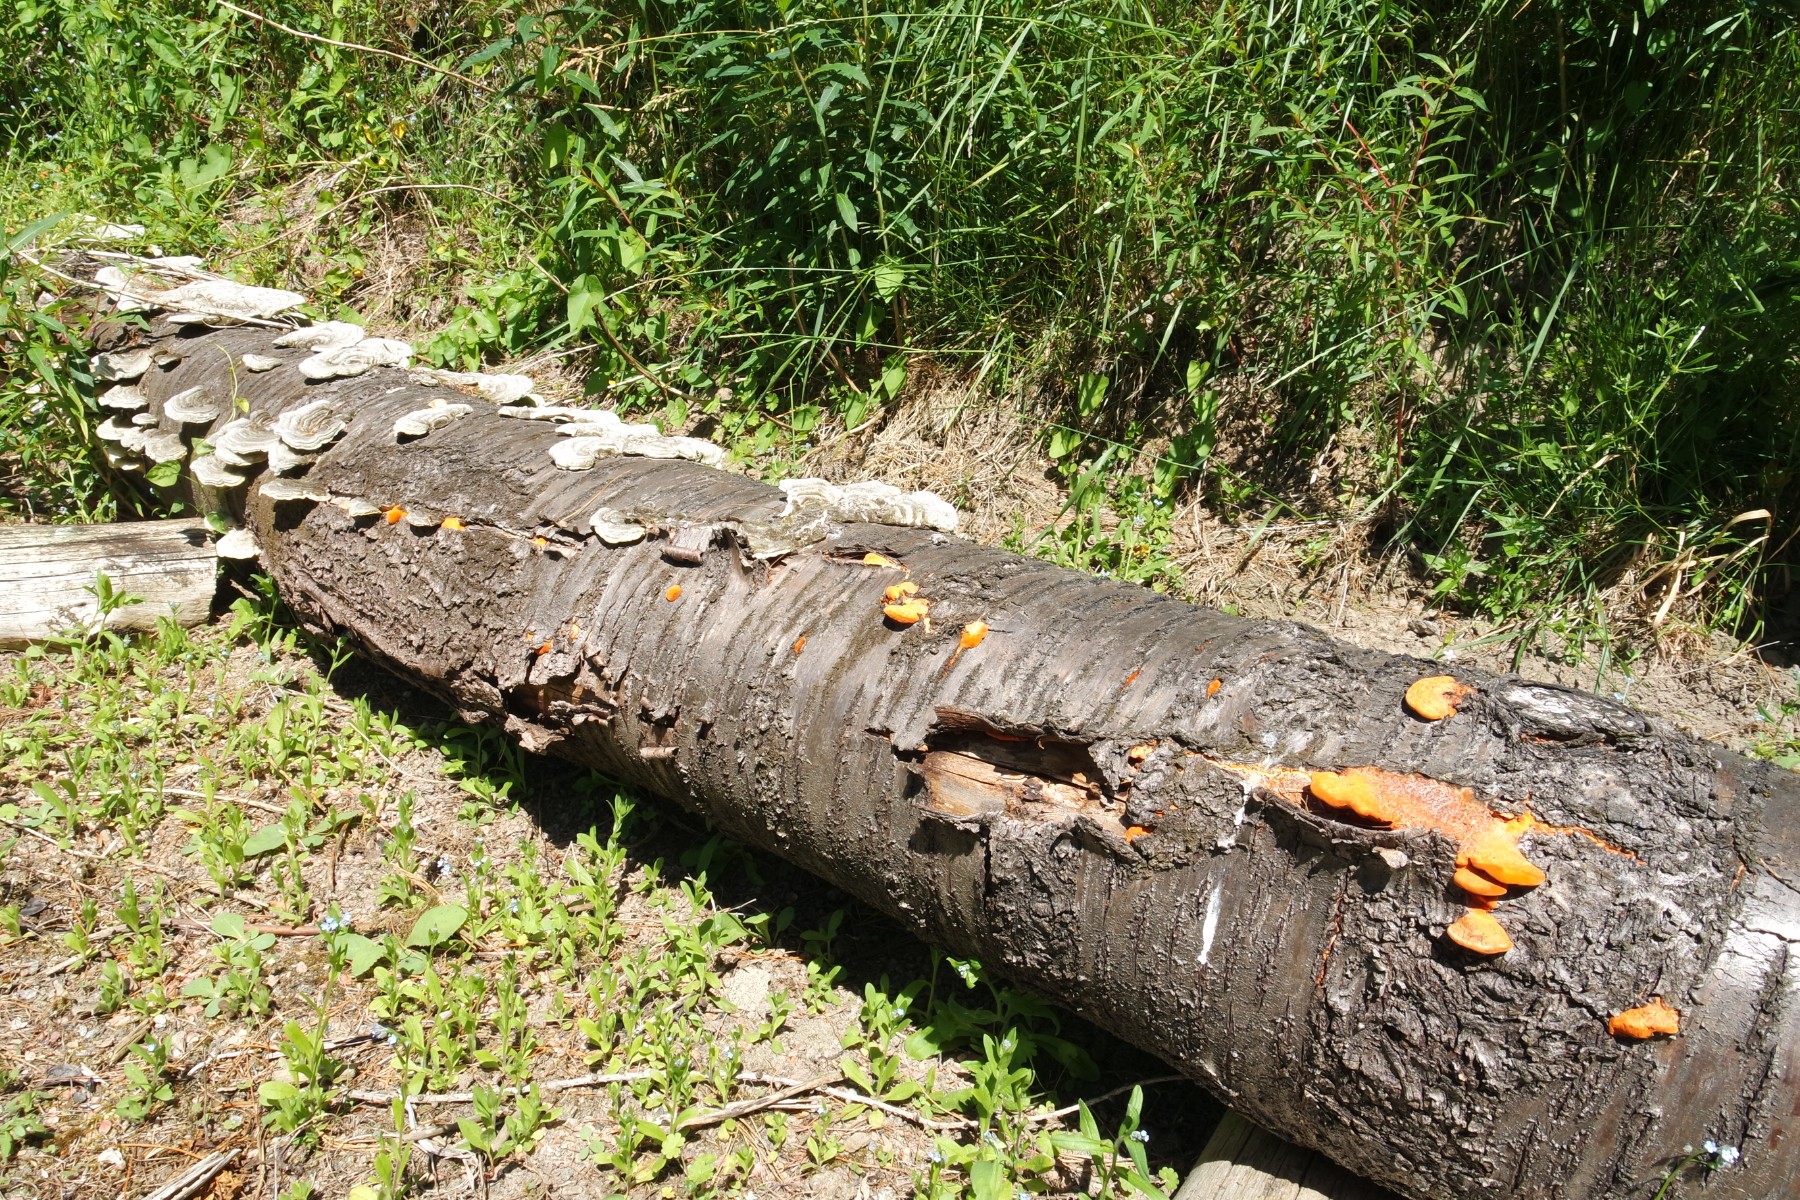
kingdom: Fungi
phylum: Basidiomycota
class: Agaricomycetes
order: Polyporales
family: Polyporaceae
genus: Trametes
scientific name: Trametes cinnabarina
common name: cinnoberporesvamp
